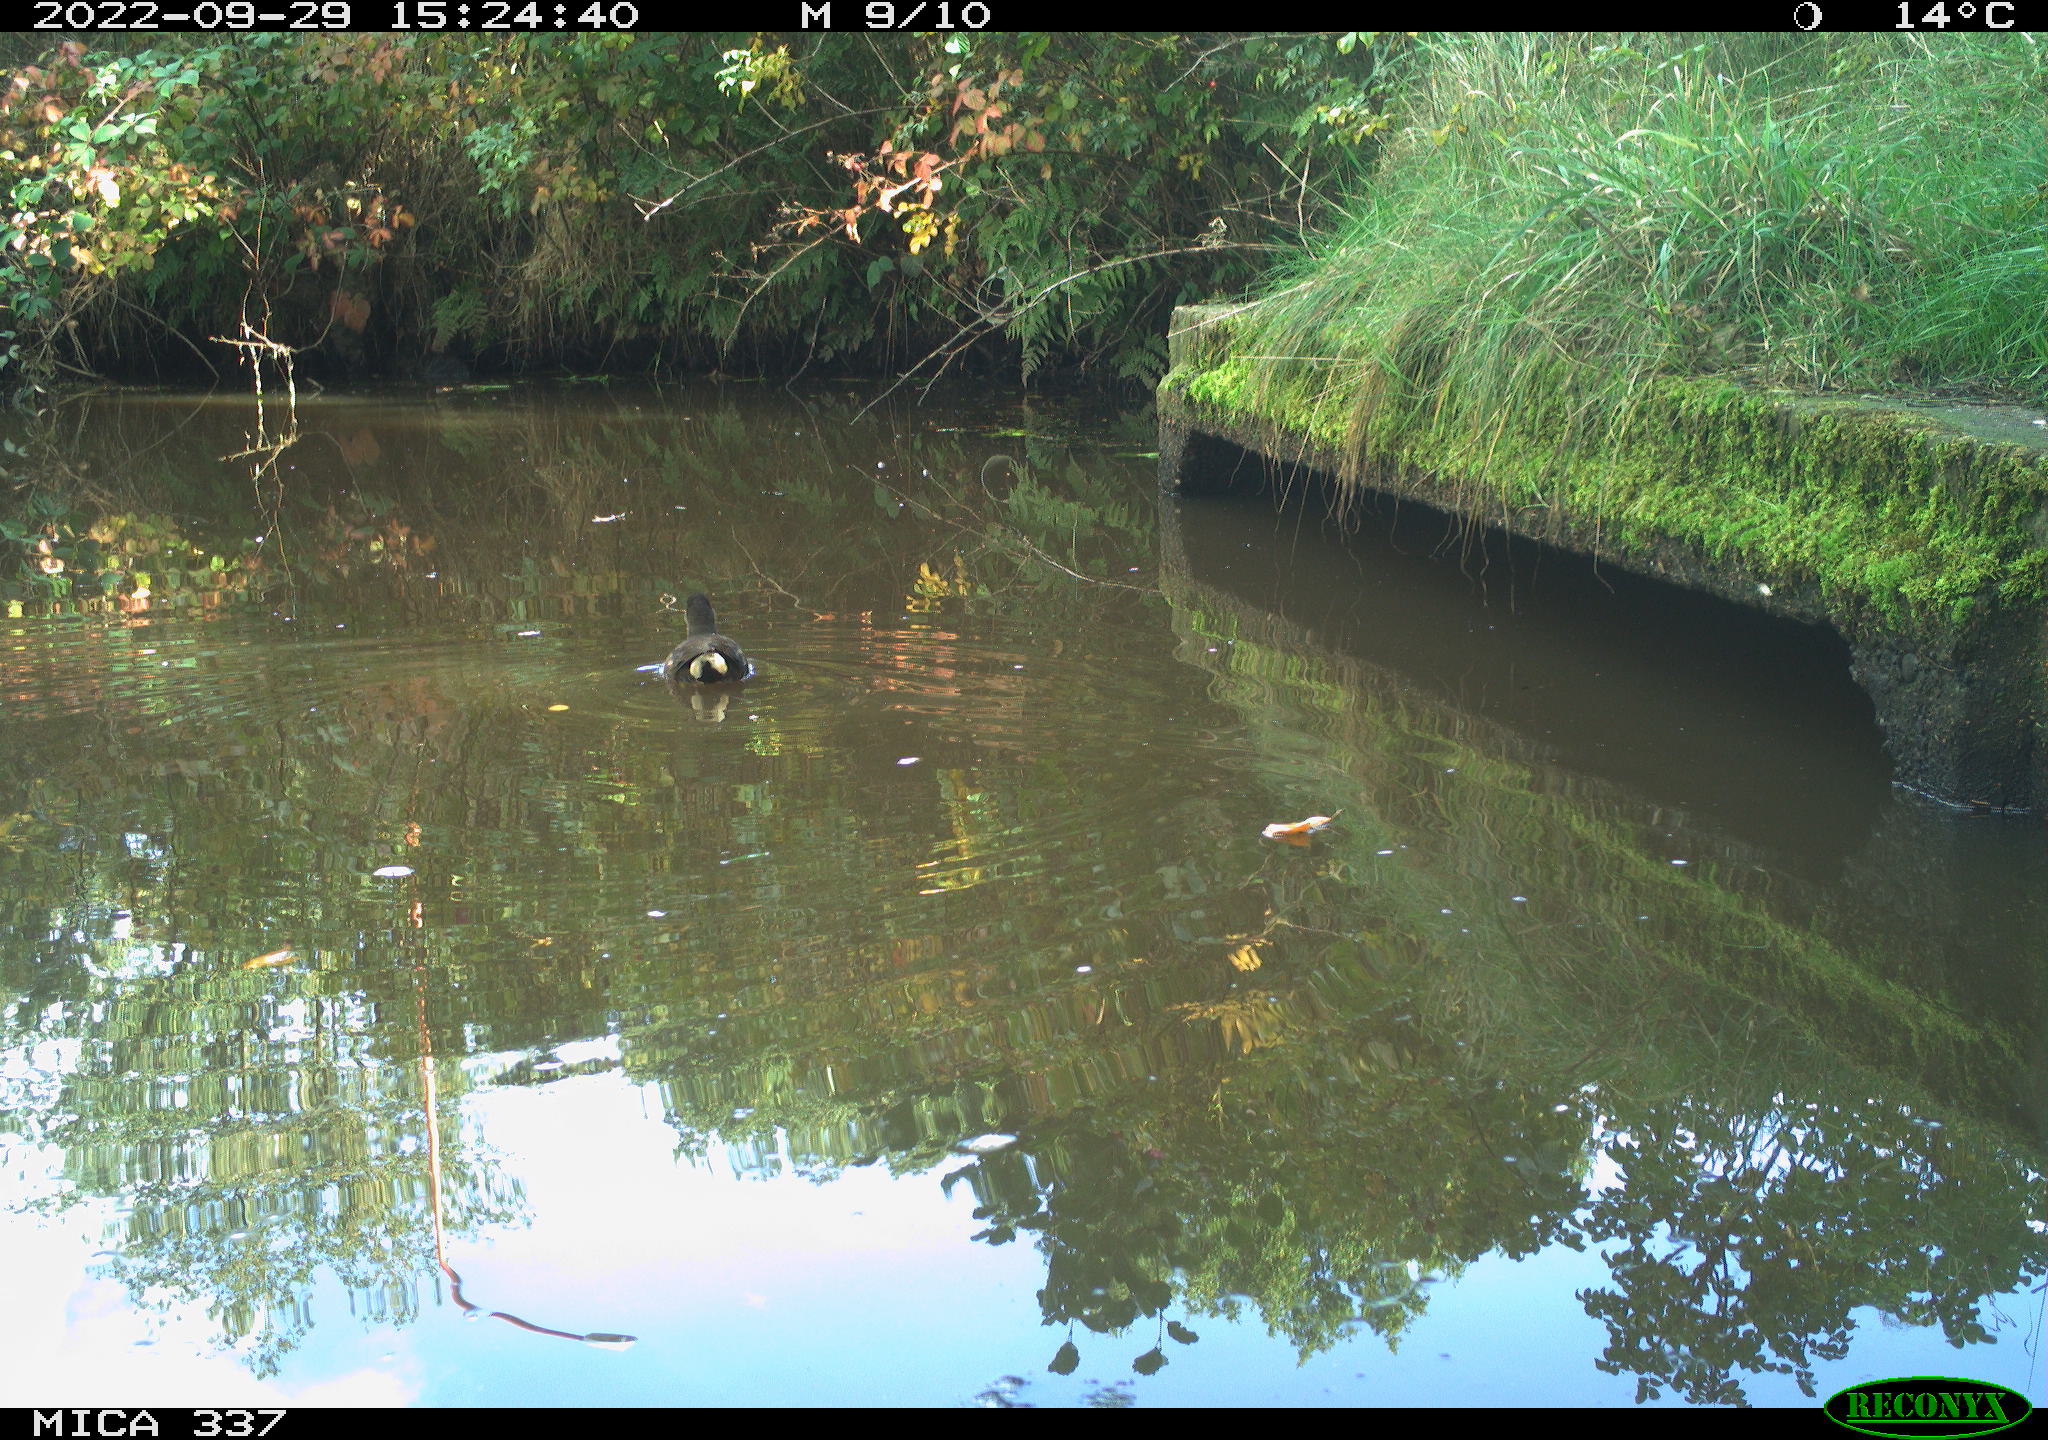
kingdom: Animalia
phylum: Chordata
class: Aves
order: Gruiformes
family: Rallidae
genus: Gallinula
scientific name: Gallinula chloropus
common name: Common moorhen
